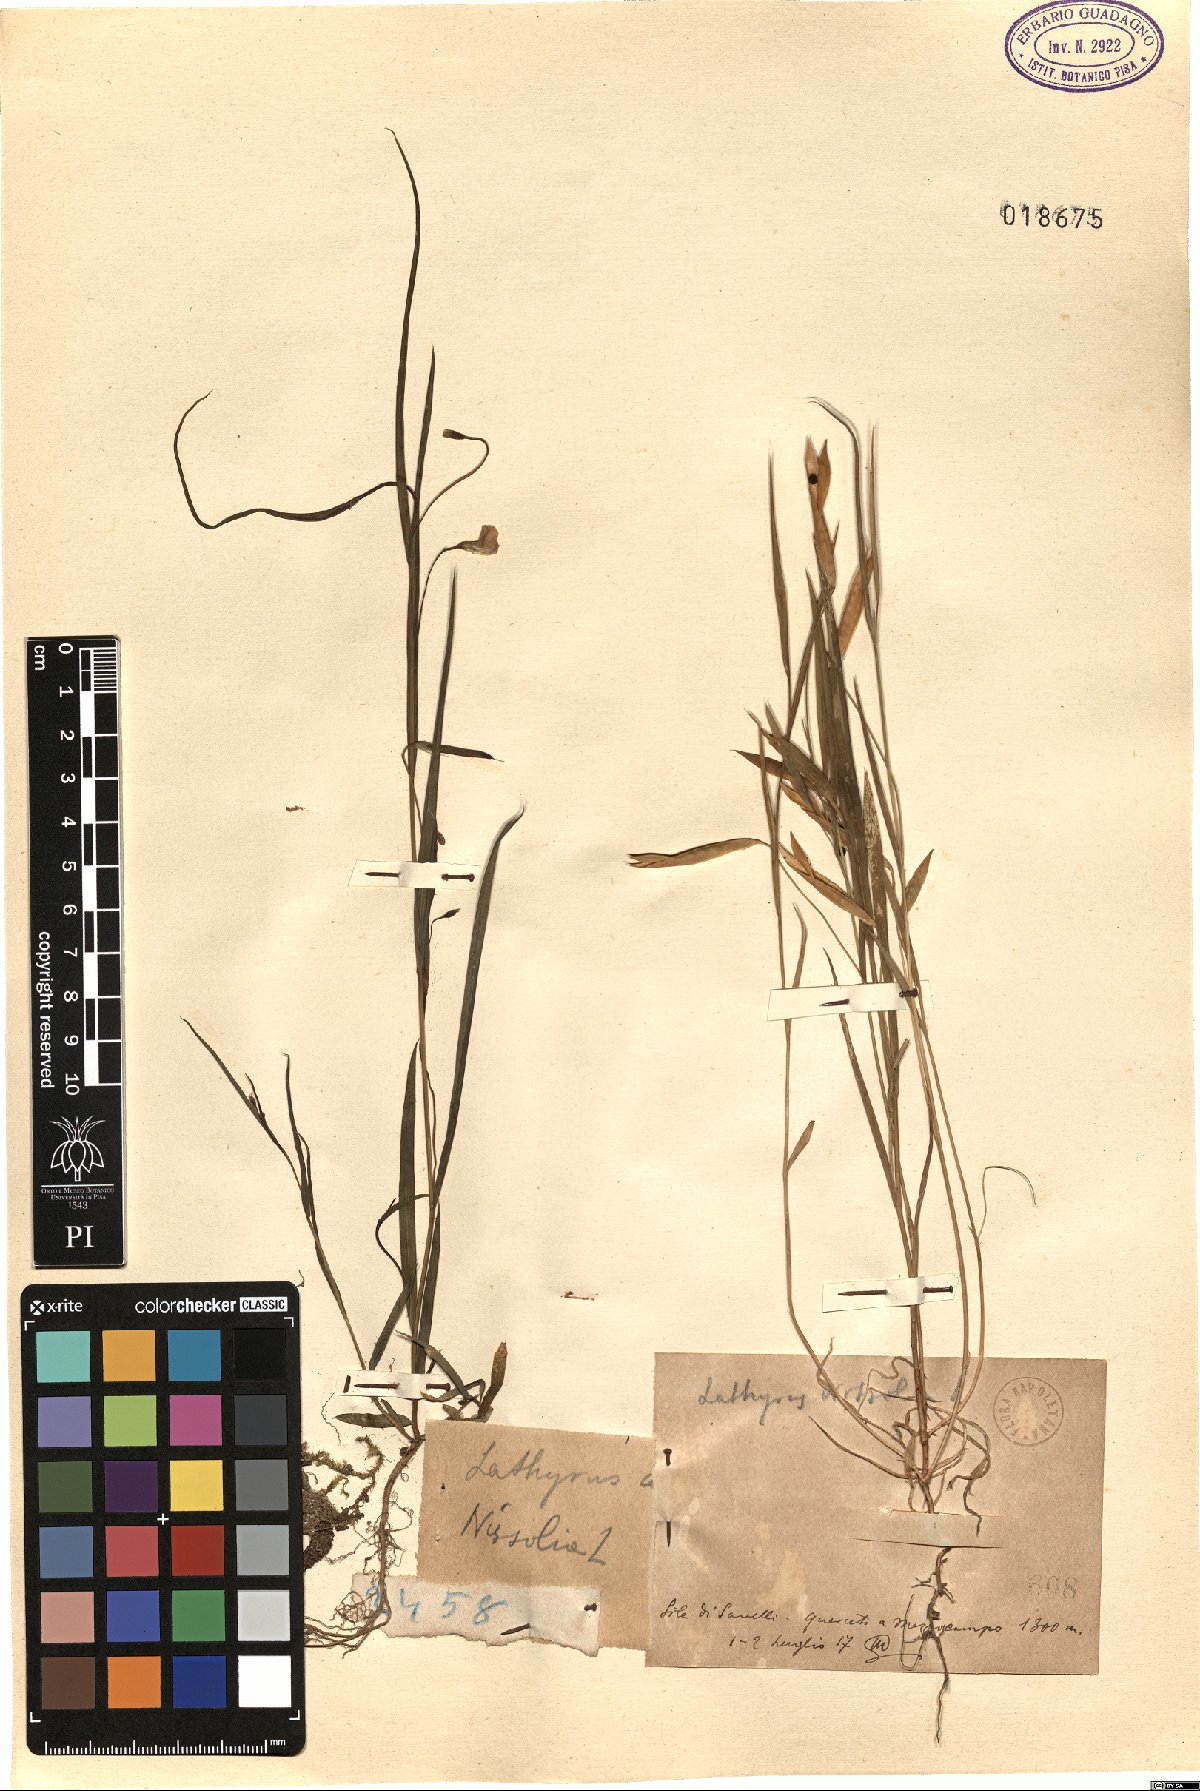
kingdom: Plantae
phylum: Tracheophyta
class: Magnoliopsida
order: Fabales
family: Fabaceae
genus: Lathyrus
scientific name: Lathyrus nissolia
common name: Grass vetchling
